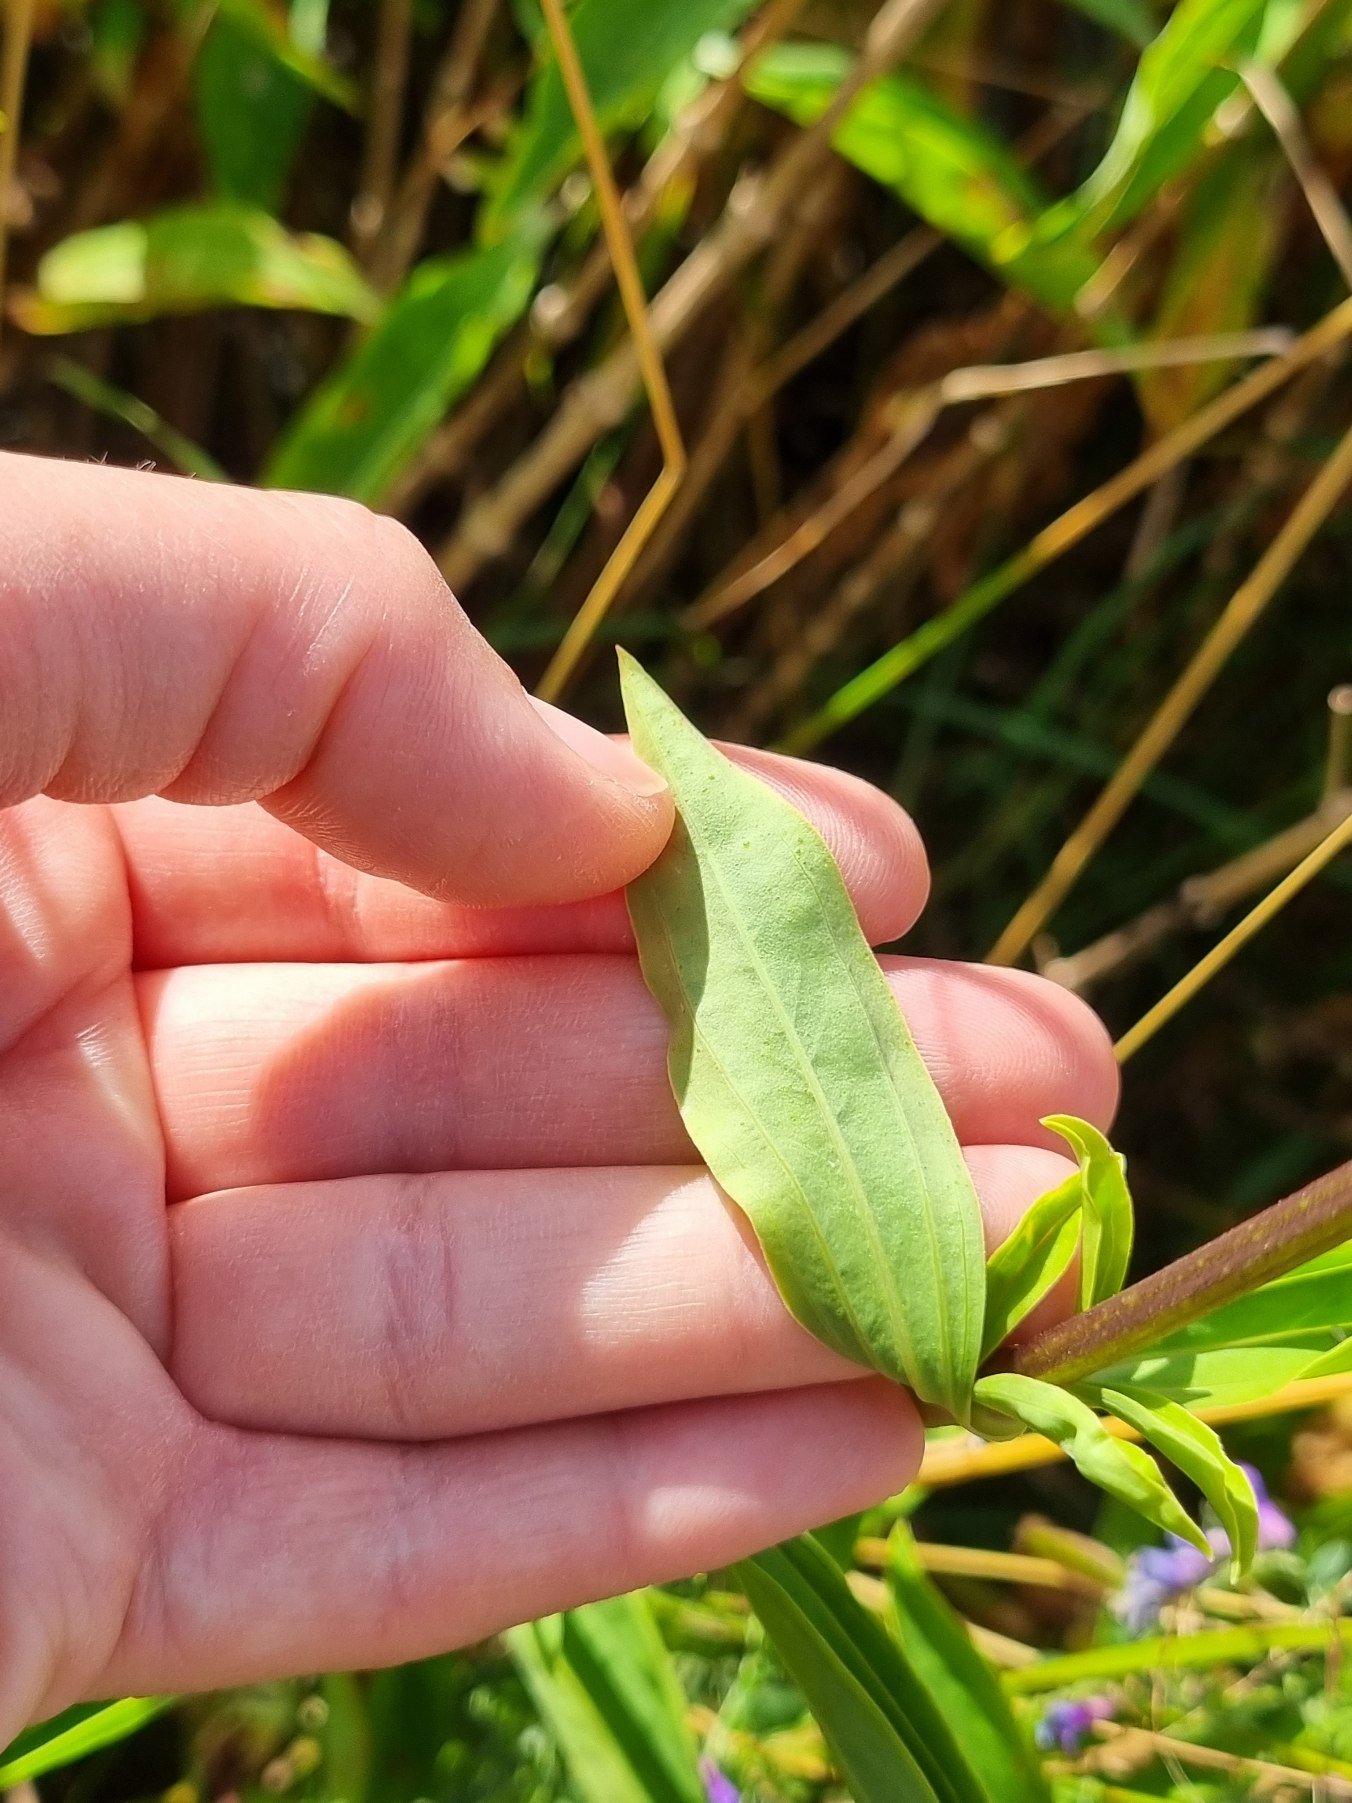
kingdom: Plantae
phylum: Tracheophyta
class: Magnoliopsida
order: Caryophyllales
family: Caryophyllaceae
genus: Saponaria
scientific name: Saponaria officinalis
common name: Sæbeurt
